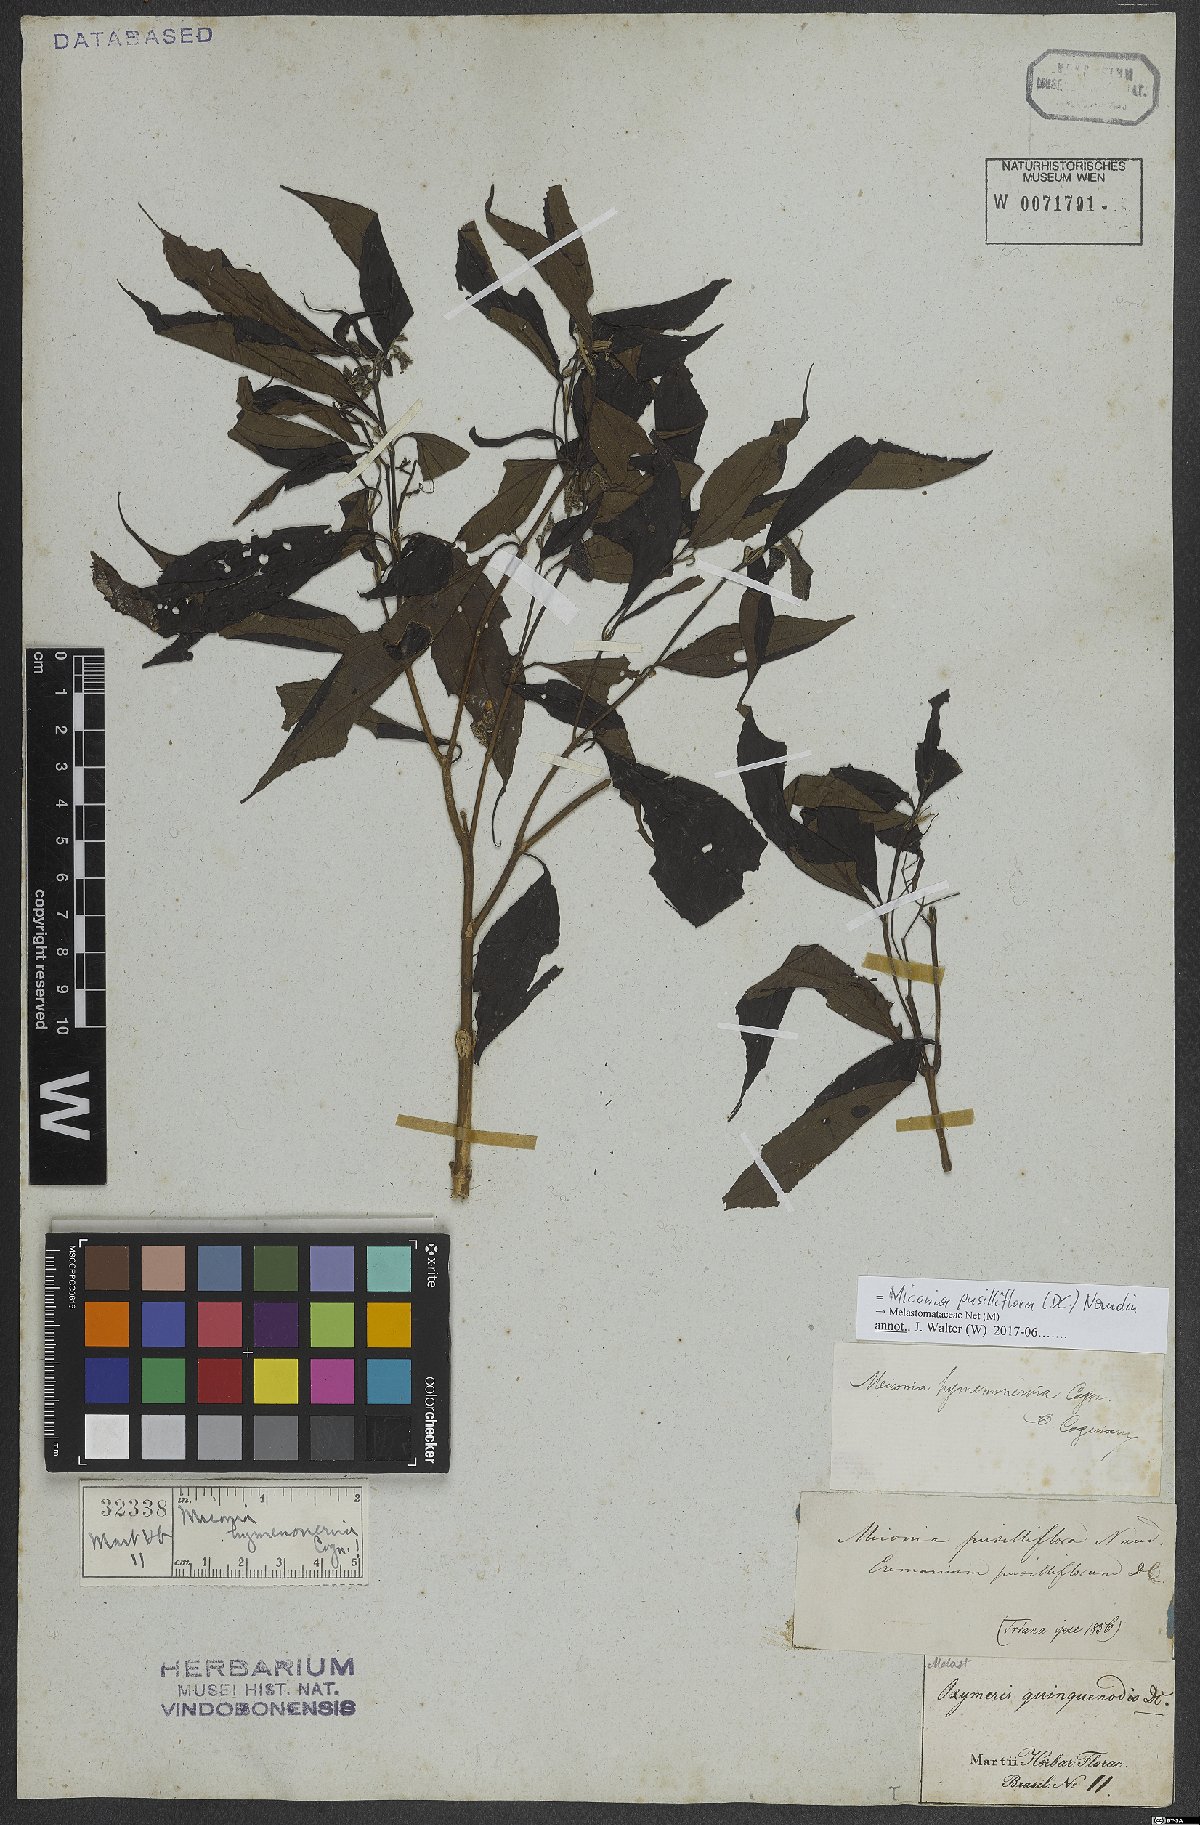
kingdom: Plantae
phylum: Tracheophyta
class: Magnoliopsida
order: Myrtales
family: Melastomataceae
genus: Miconia
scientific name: Miconia pusilliflora
